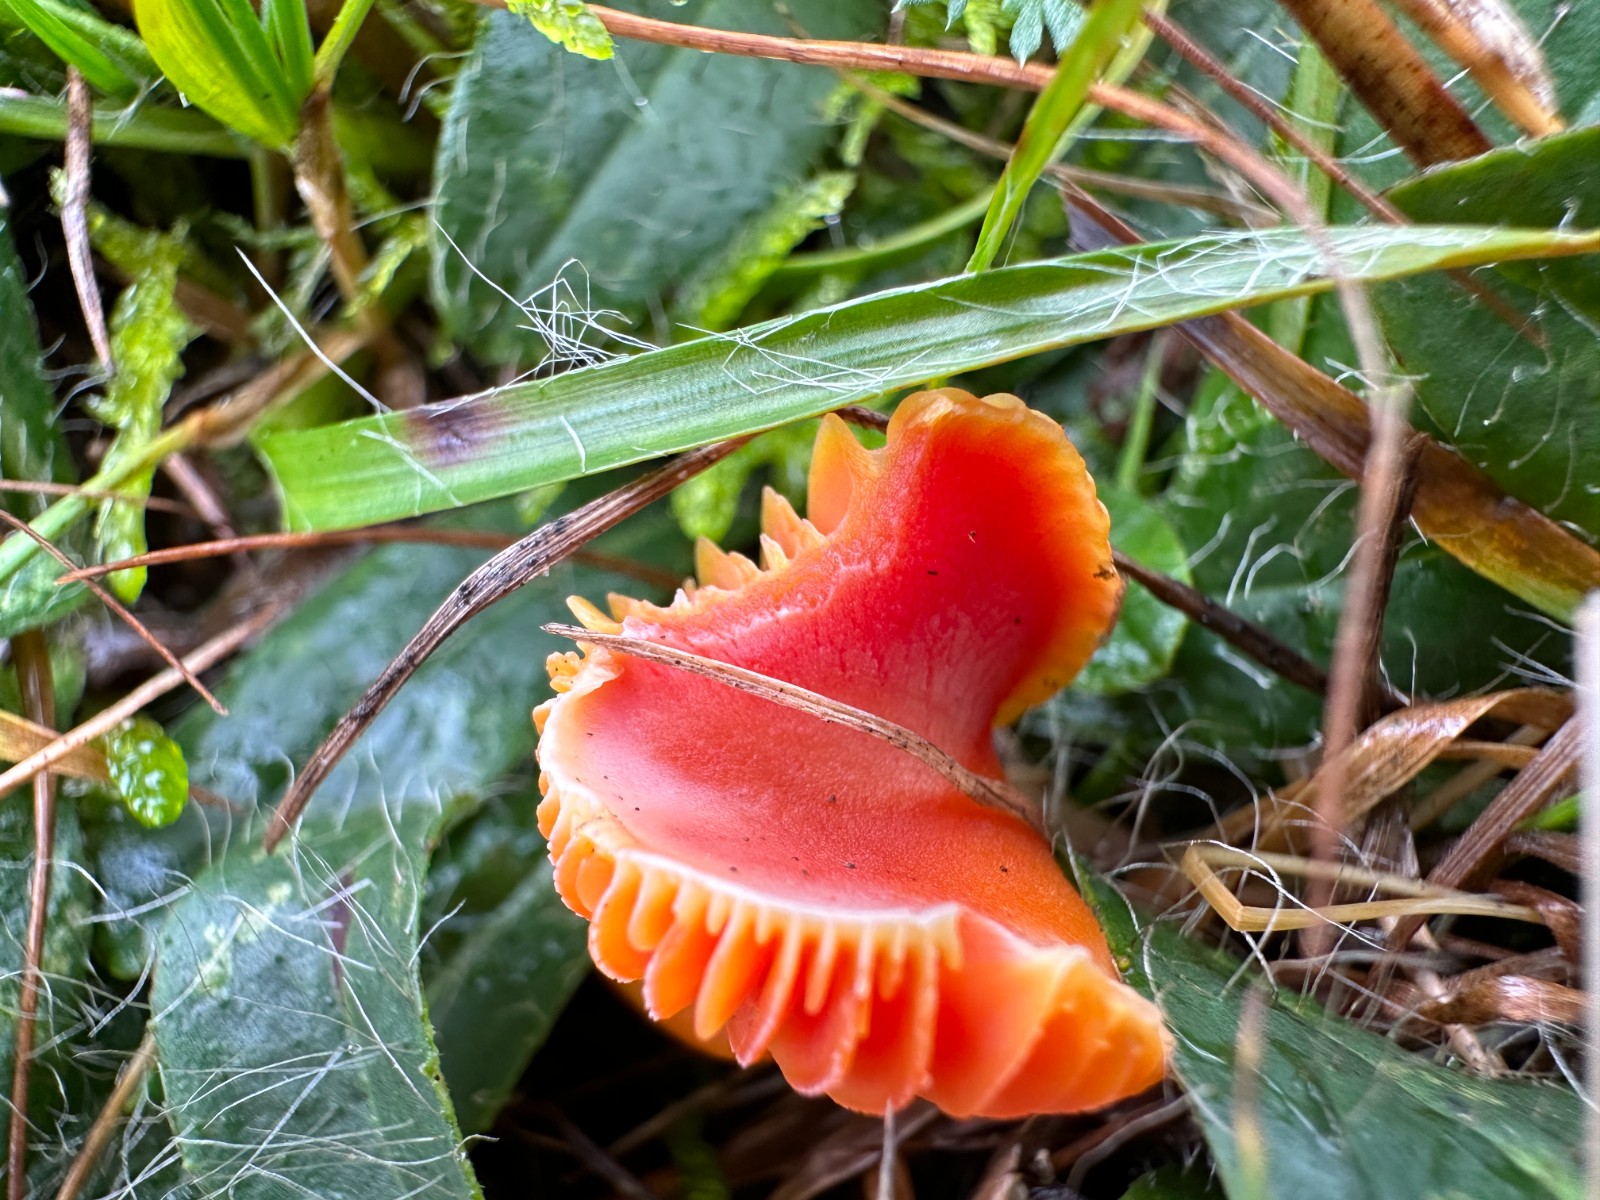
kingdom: Fungi
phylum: Basidiomycota
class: Agaricomycetes
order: Agaricales
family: Hygrophoraceae
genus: Hygrocybe
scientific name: Hygrocybe miniata
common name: mønje-vokshat
